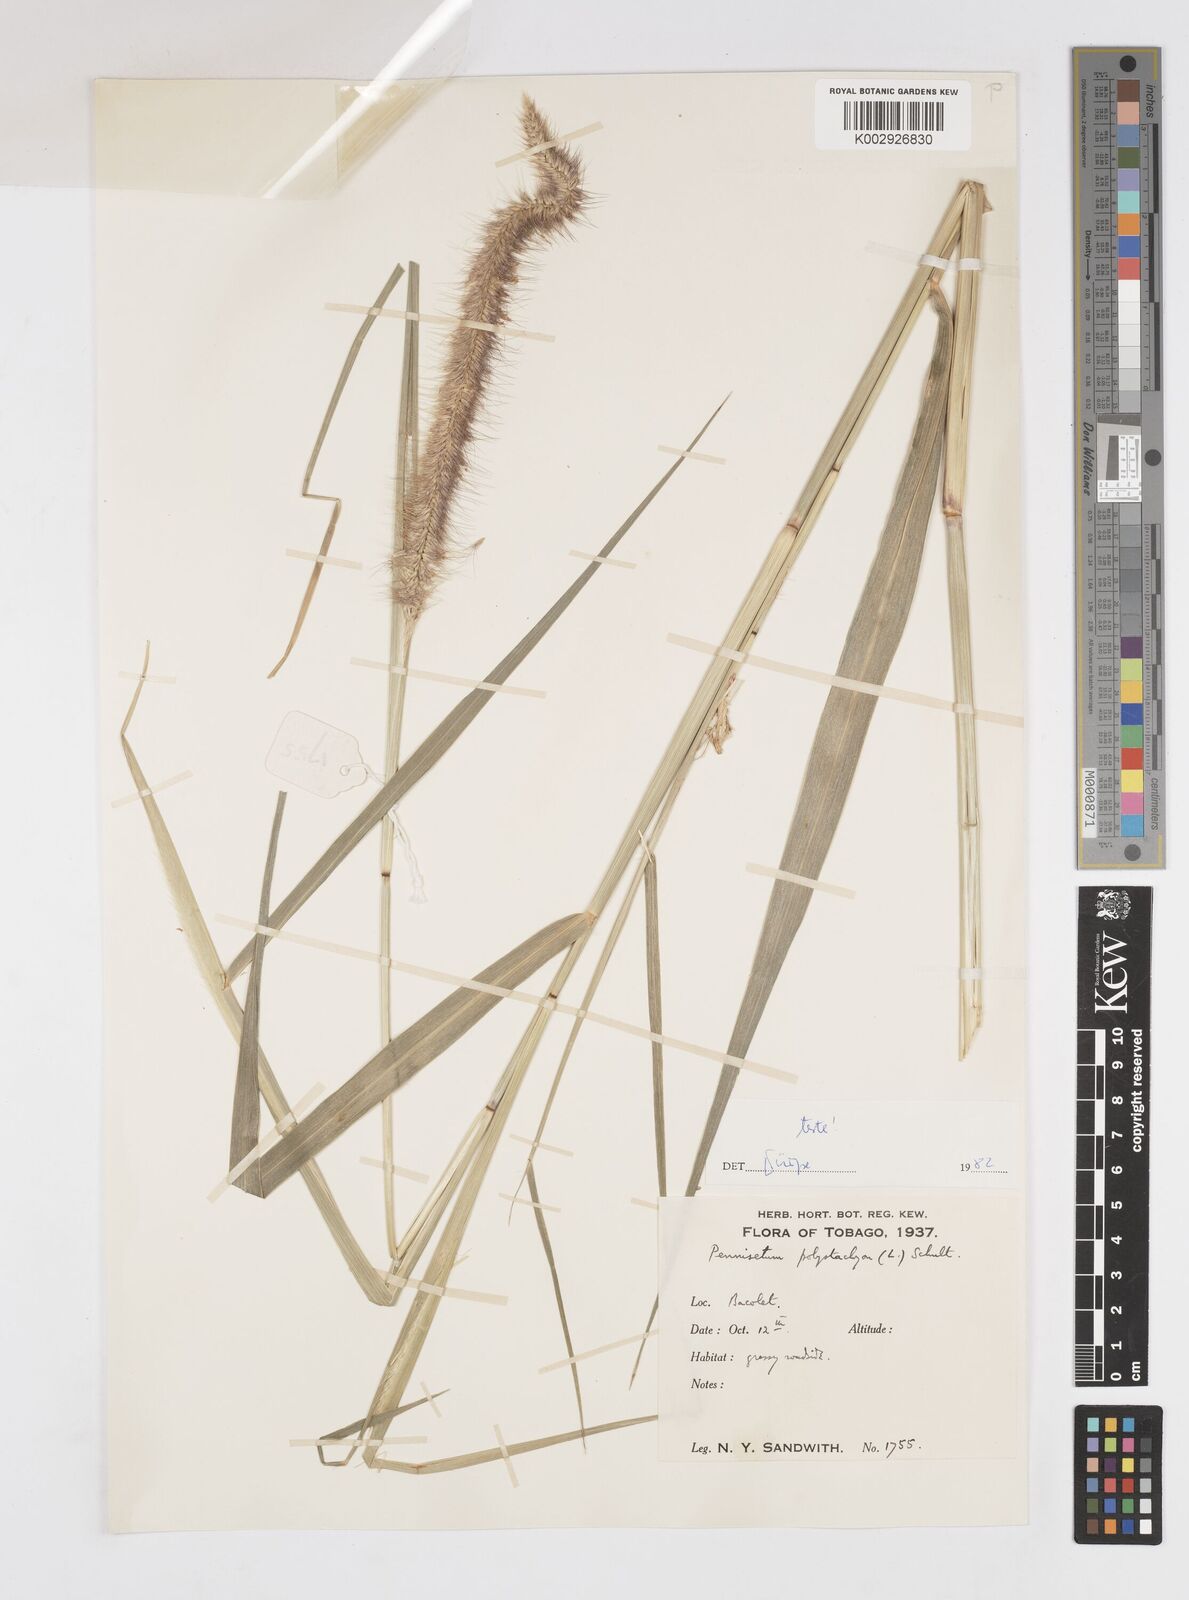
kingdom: Plantae
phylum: Tracheophyta
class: Liliopsida
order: Poales
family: Poaceae
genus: Cenchrus
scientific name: Cenchrus setosus
